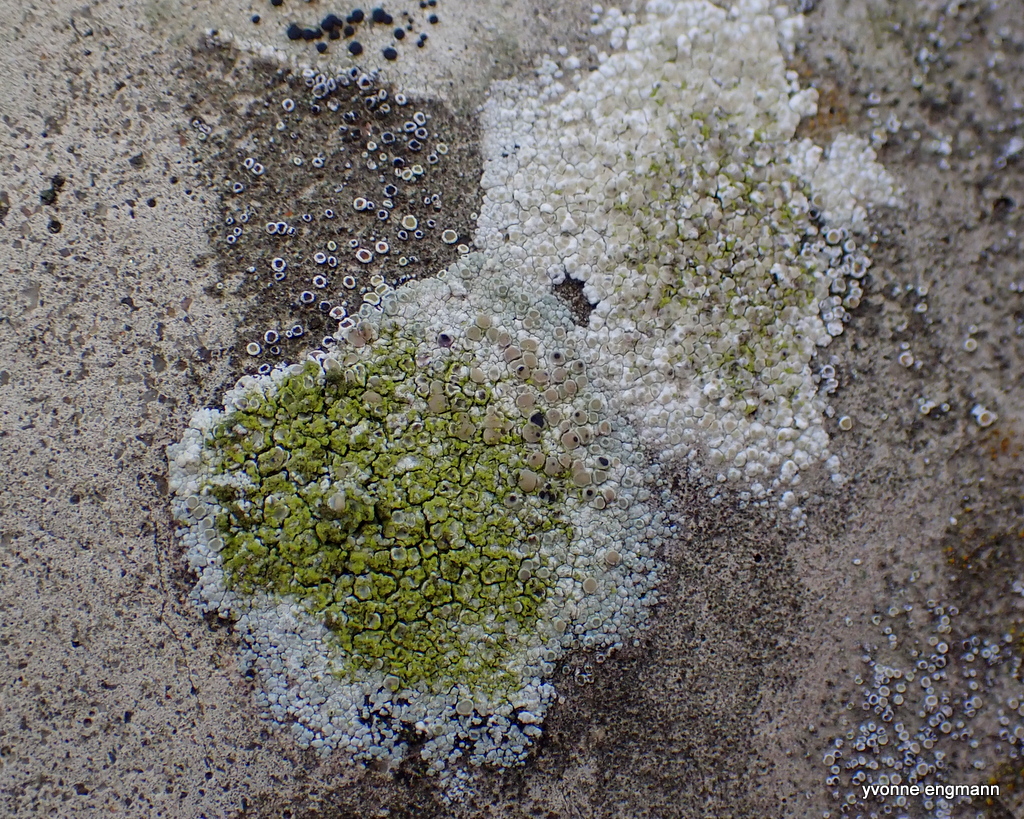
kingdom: Fungi
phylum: Ascomycota
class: Lecanoromycetes
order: Lecanorales
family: Lecanoraceae
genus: Protoparmeliopsis
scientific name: Protoparmeliopsis muralis
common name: randfliget kantskivelav
